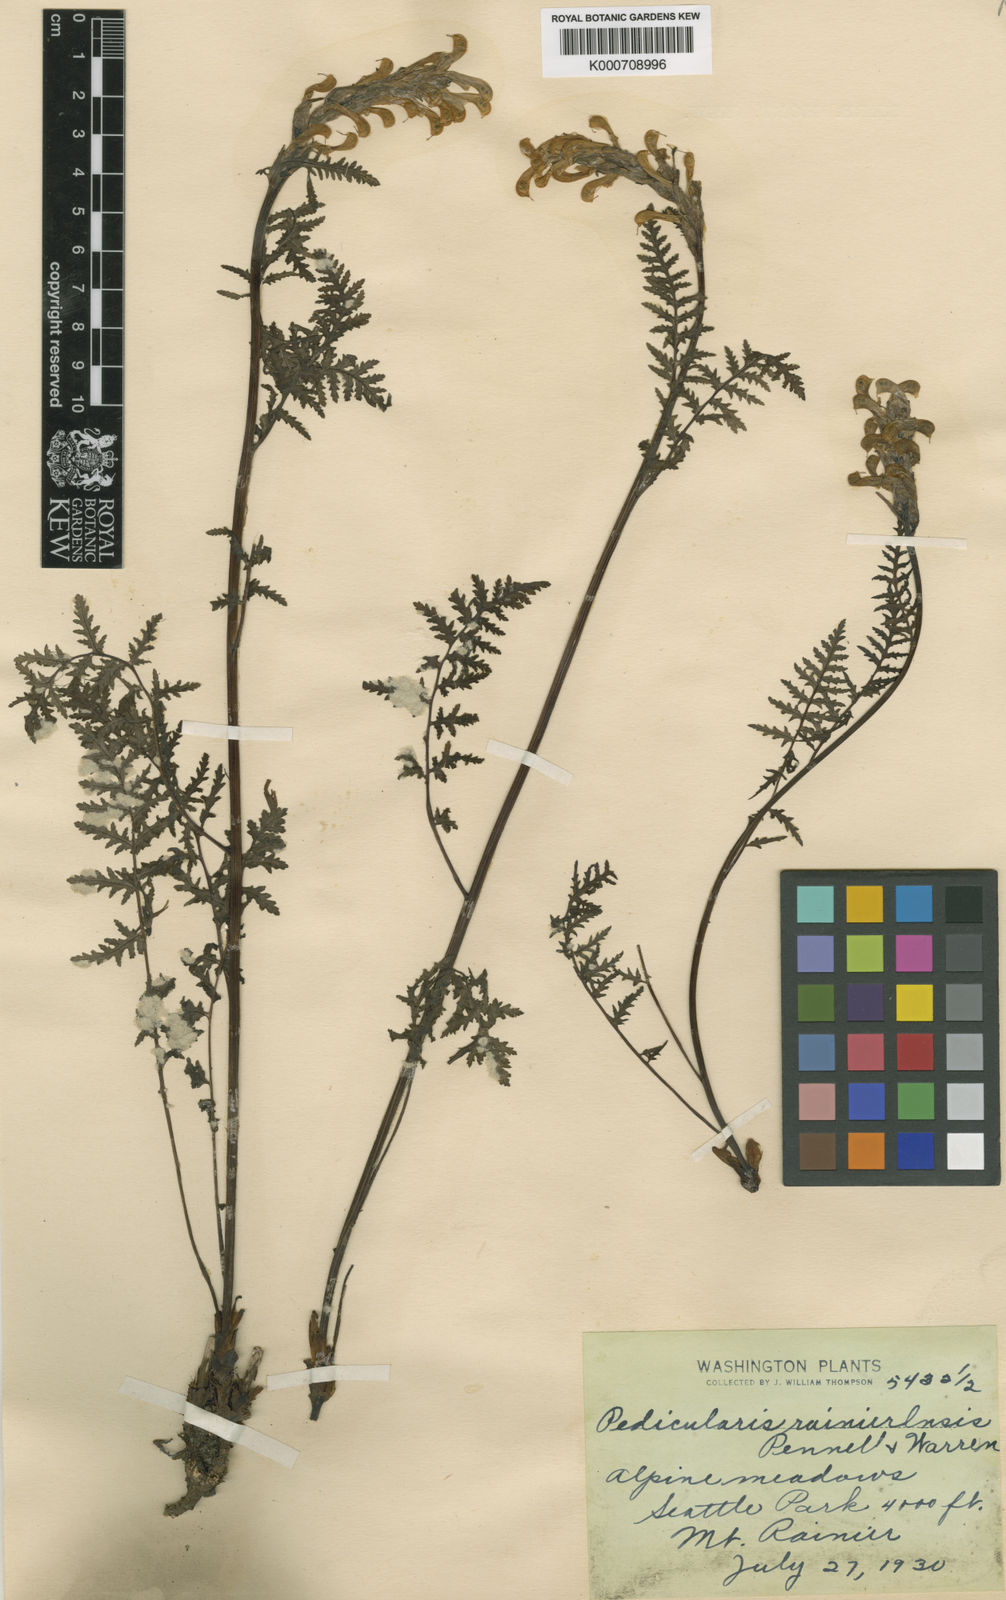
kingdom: Plantae
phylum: Tracheophyta
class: Magnoliopsida
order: Lamiales
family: Orobanchaceae
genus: Pedicularis
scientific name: Pedicularis
